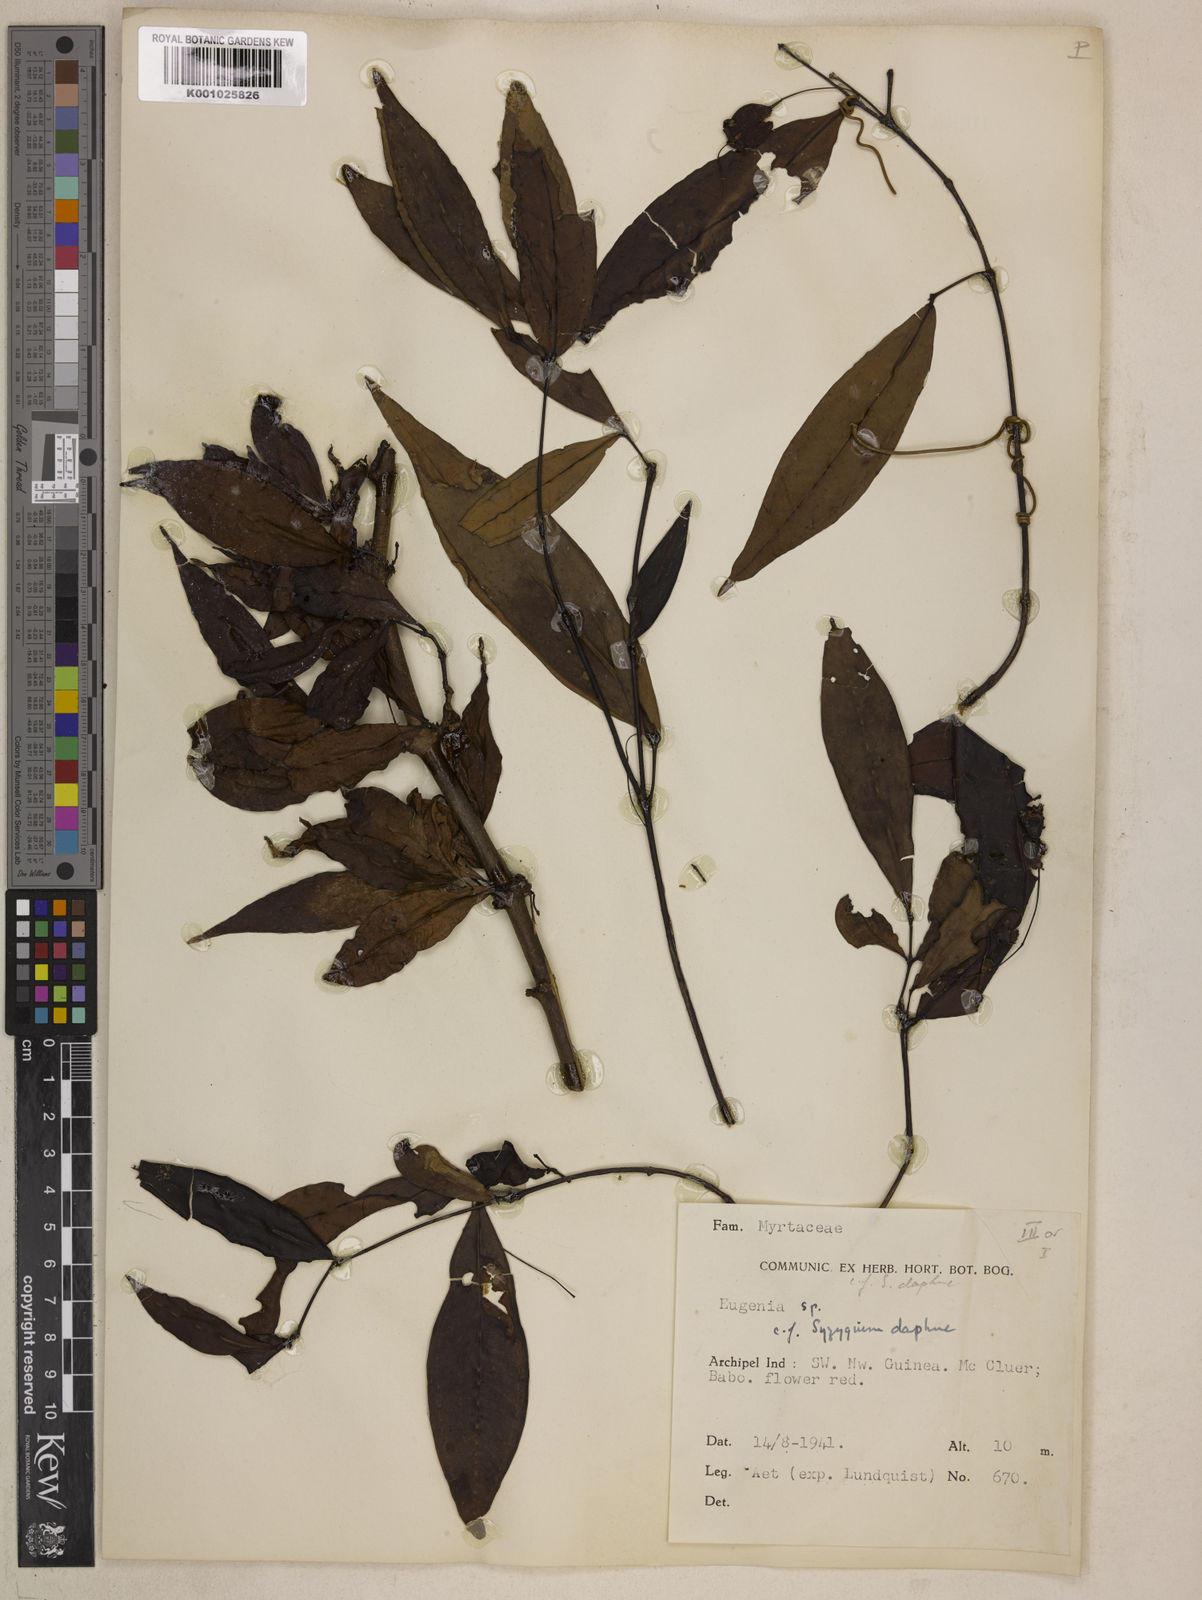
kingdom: Plantae
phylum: Tracheophyta
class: Magnoliopsida
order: Myrtales
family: Myrtaceae
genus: Syzygium
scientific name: Syzygium daphne
